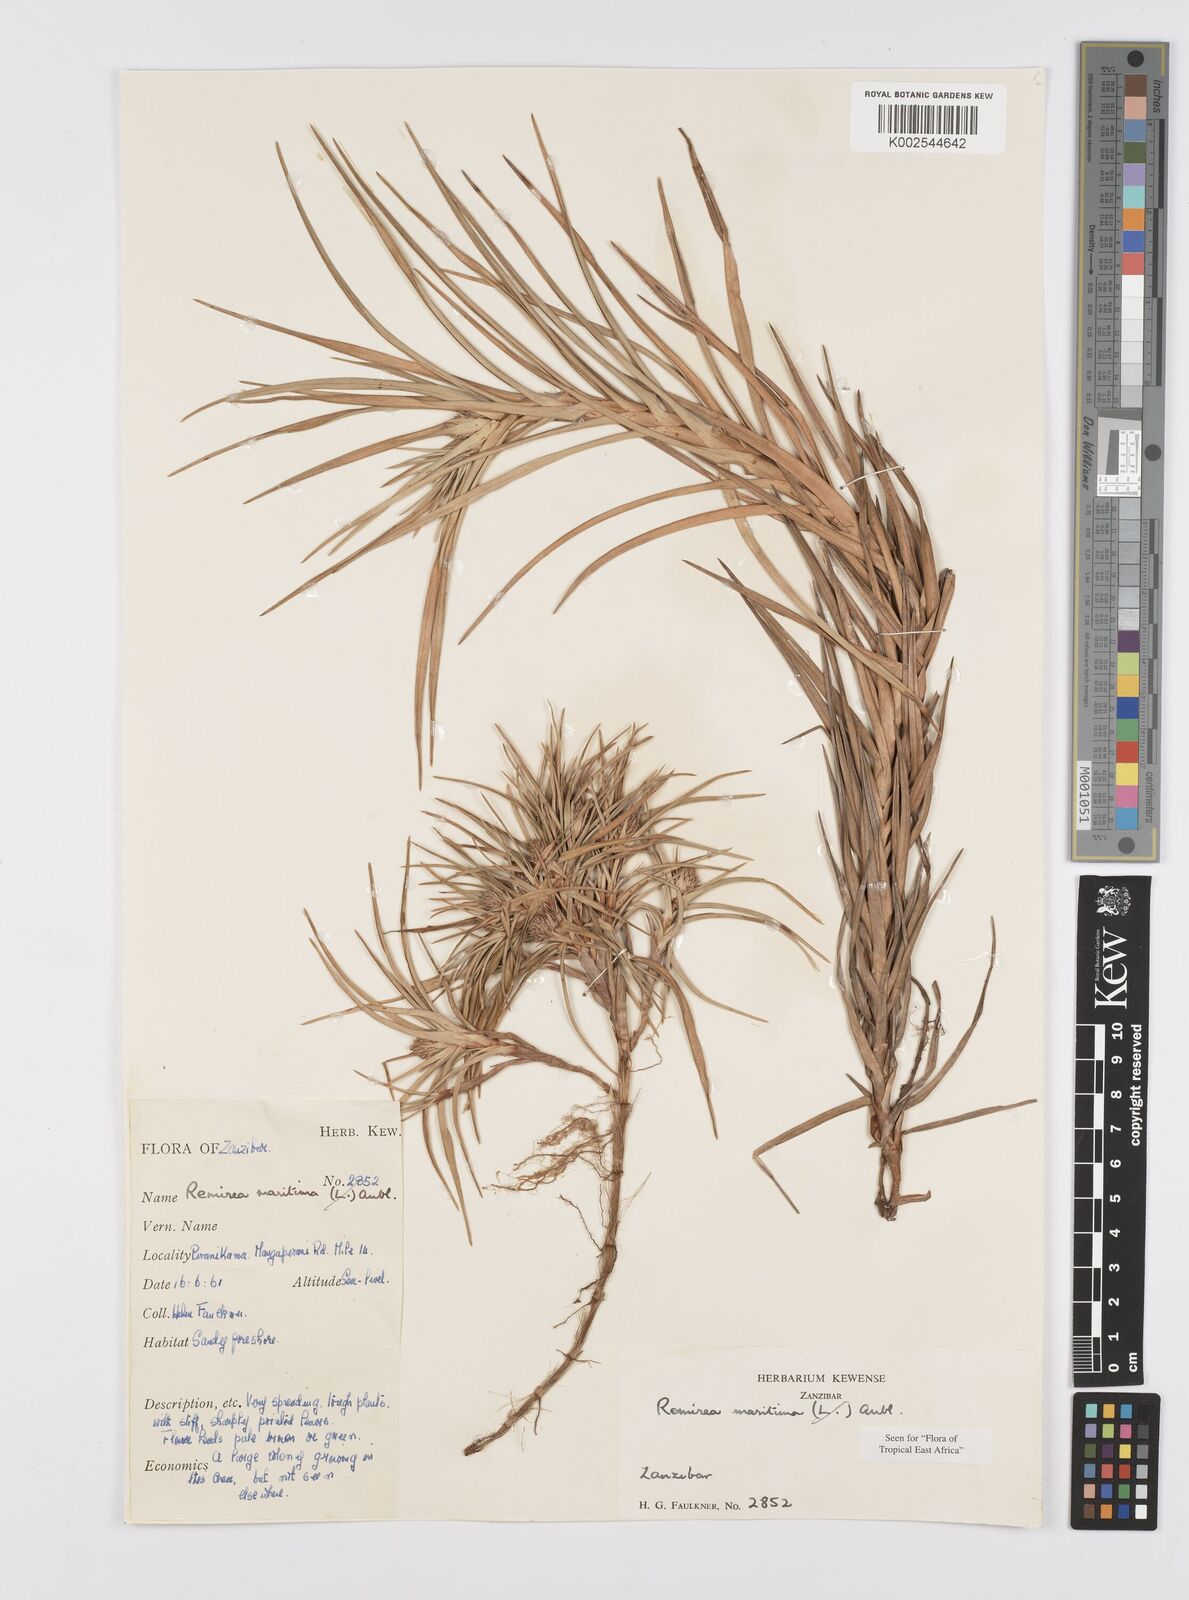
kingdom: Plantae
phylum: Tracheophyta
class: Liliopsida
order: Poales
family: Cyperaceae
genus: Cyperus
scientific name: Cyperus
